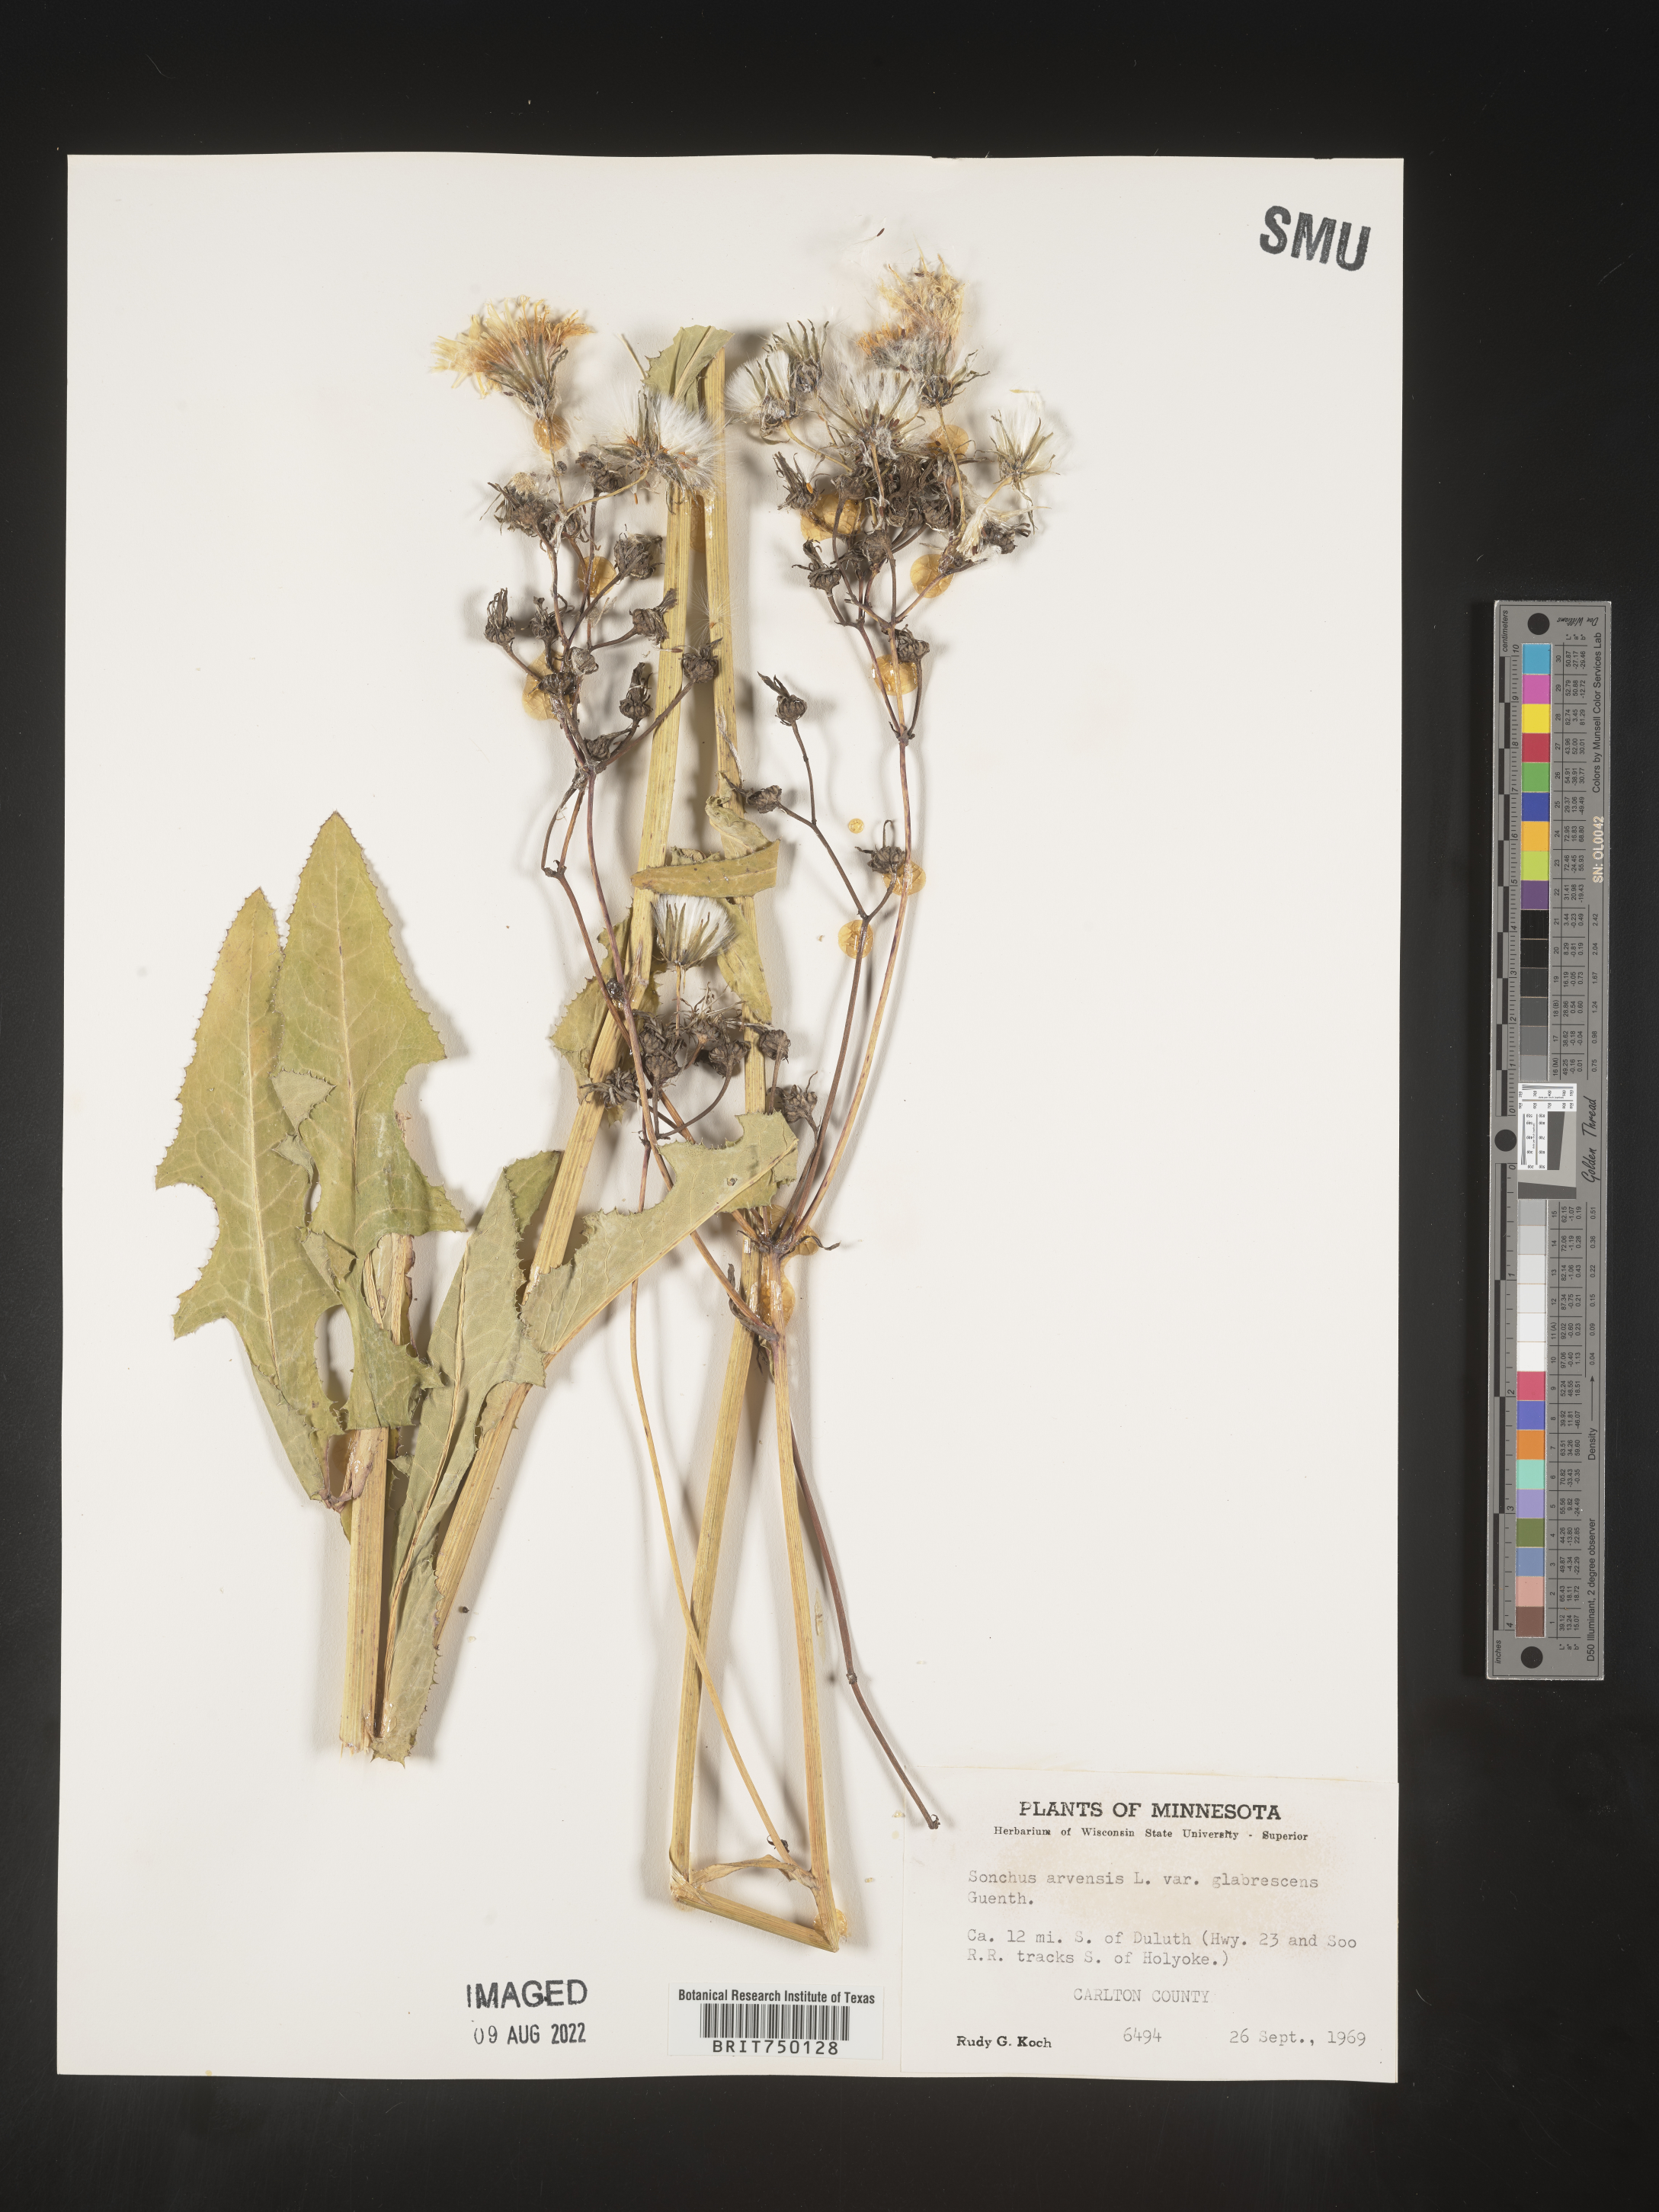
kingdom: Plantae
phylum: Tracheophyta
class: Magnoliopsida
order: Asterales
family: Asteraceae
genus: Sonchus
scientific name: Sonchus arvensis
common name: Perennial sow-thistle
